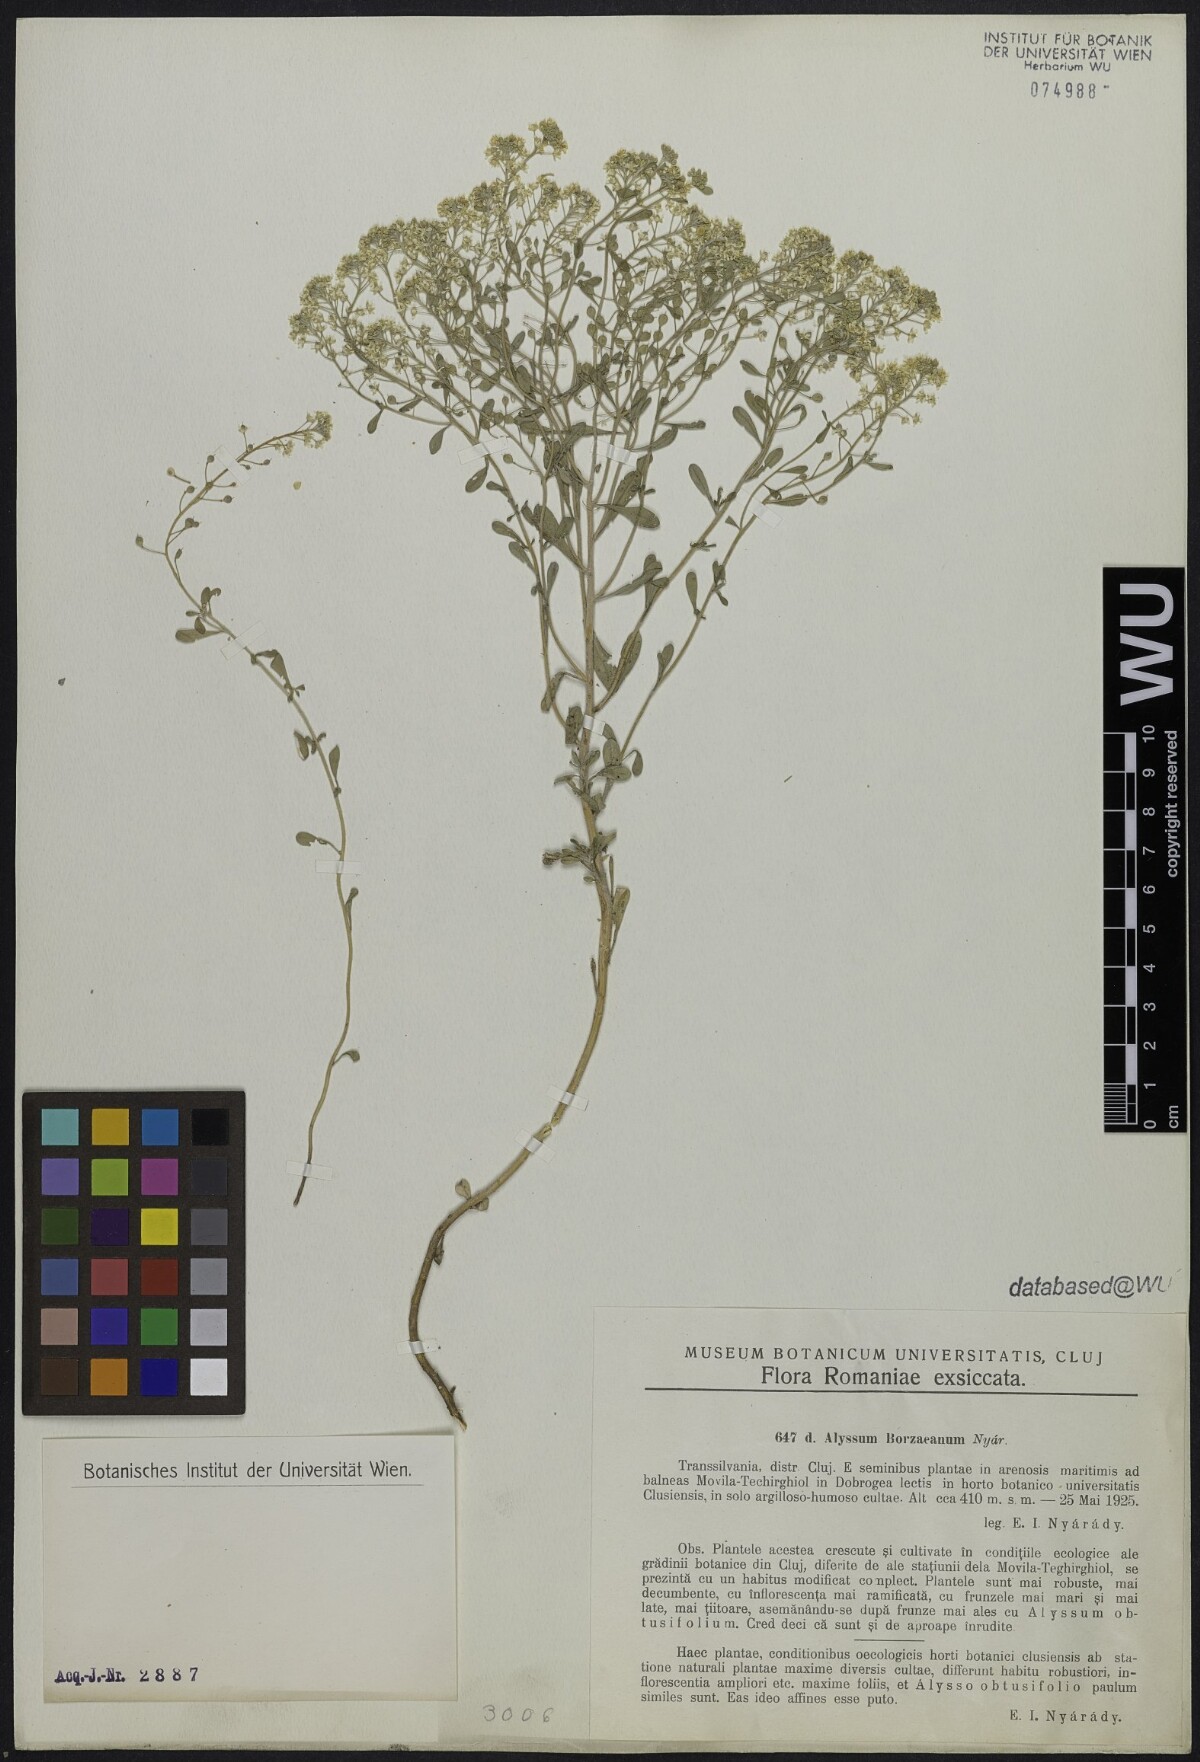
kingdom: Plantae
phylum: Tracheophyta
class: Magnoliopsida
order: Brassicales
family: Brassicaceae
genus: Odontarrhena
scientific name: Odontarrhena borzeana
